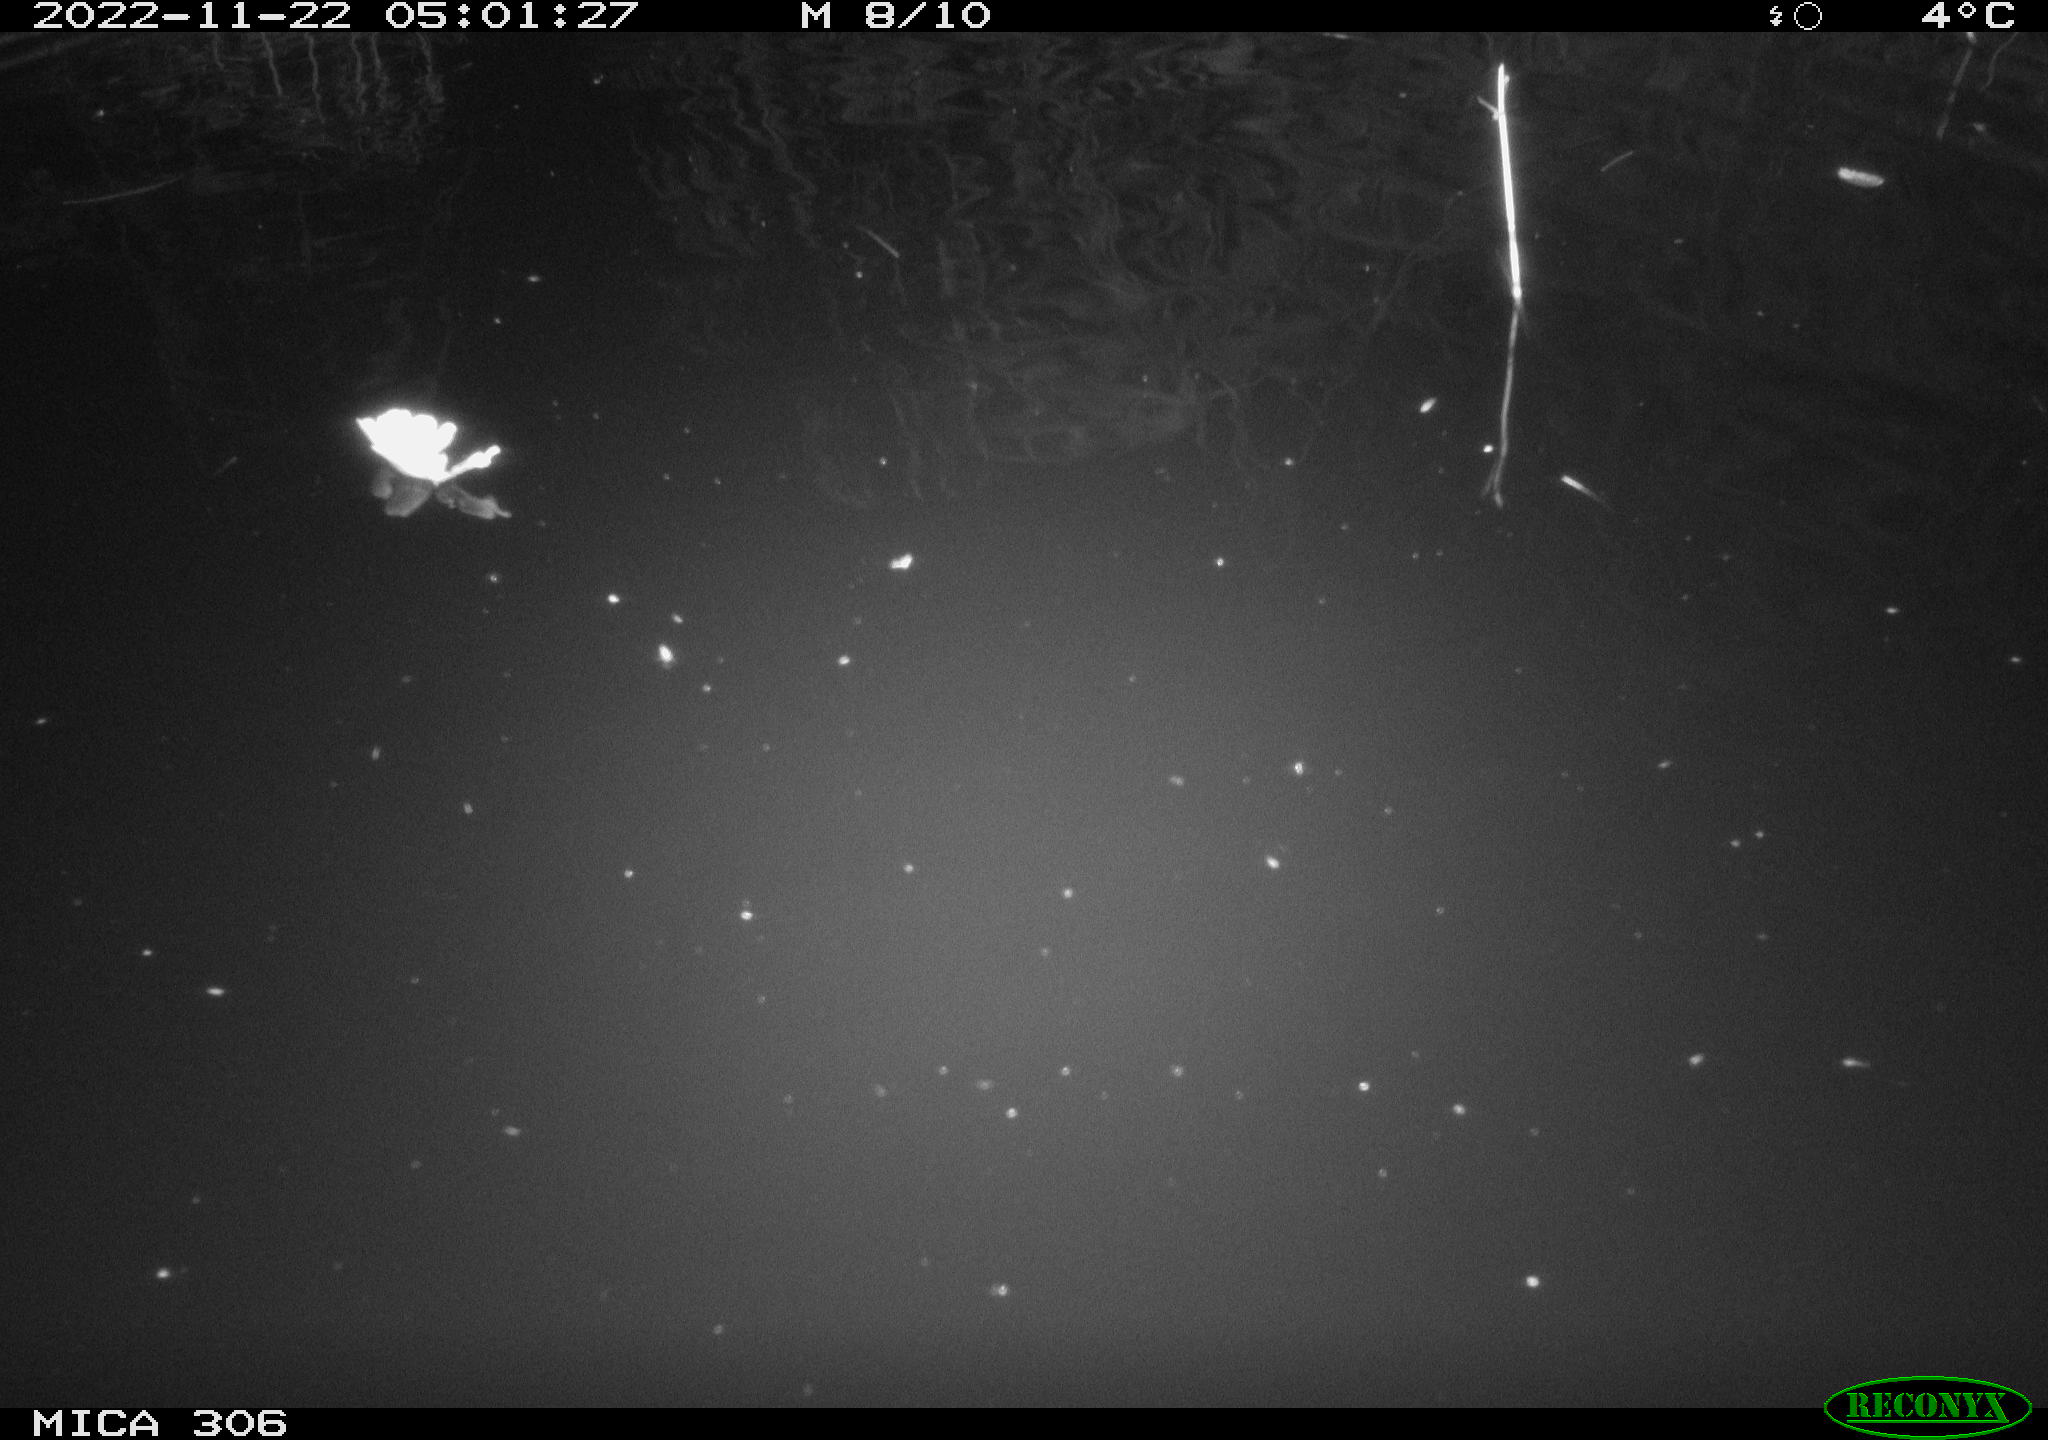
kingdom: Animalia
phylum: Chordata
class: Mammalia
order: Rodentia
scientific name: Rodentia
